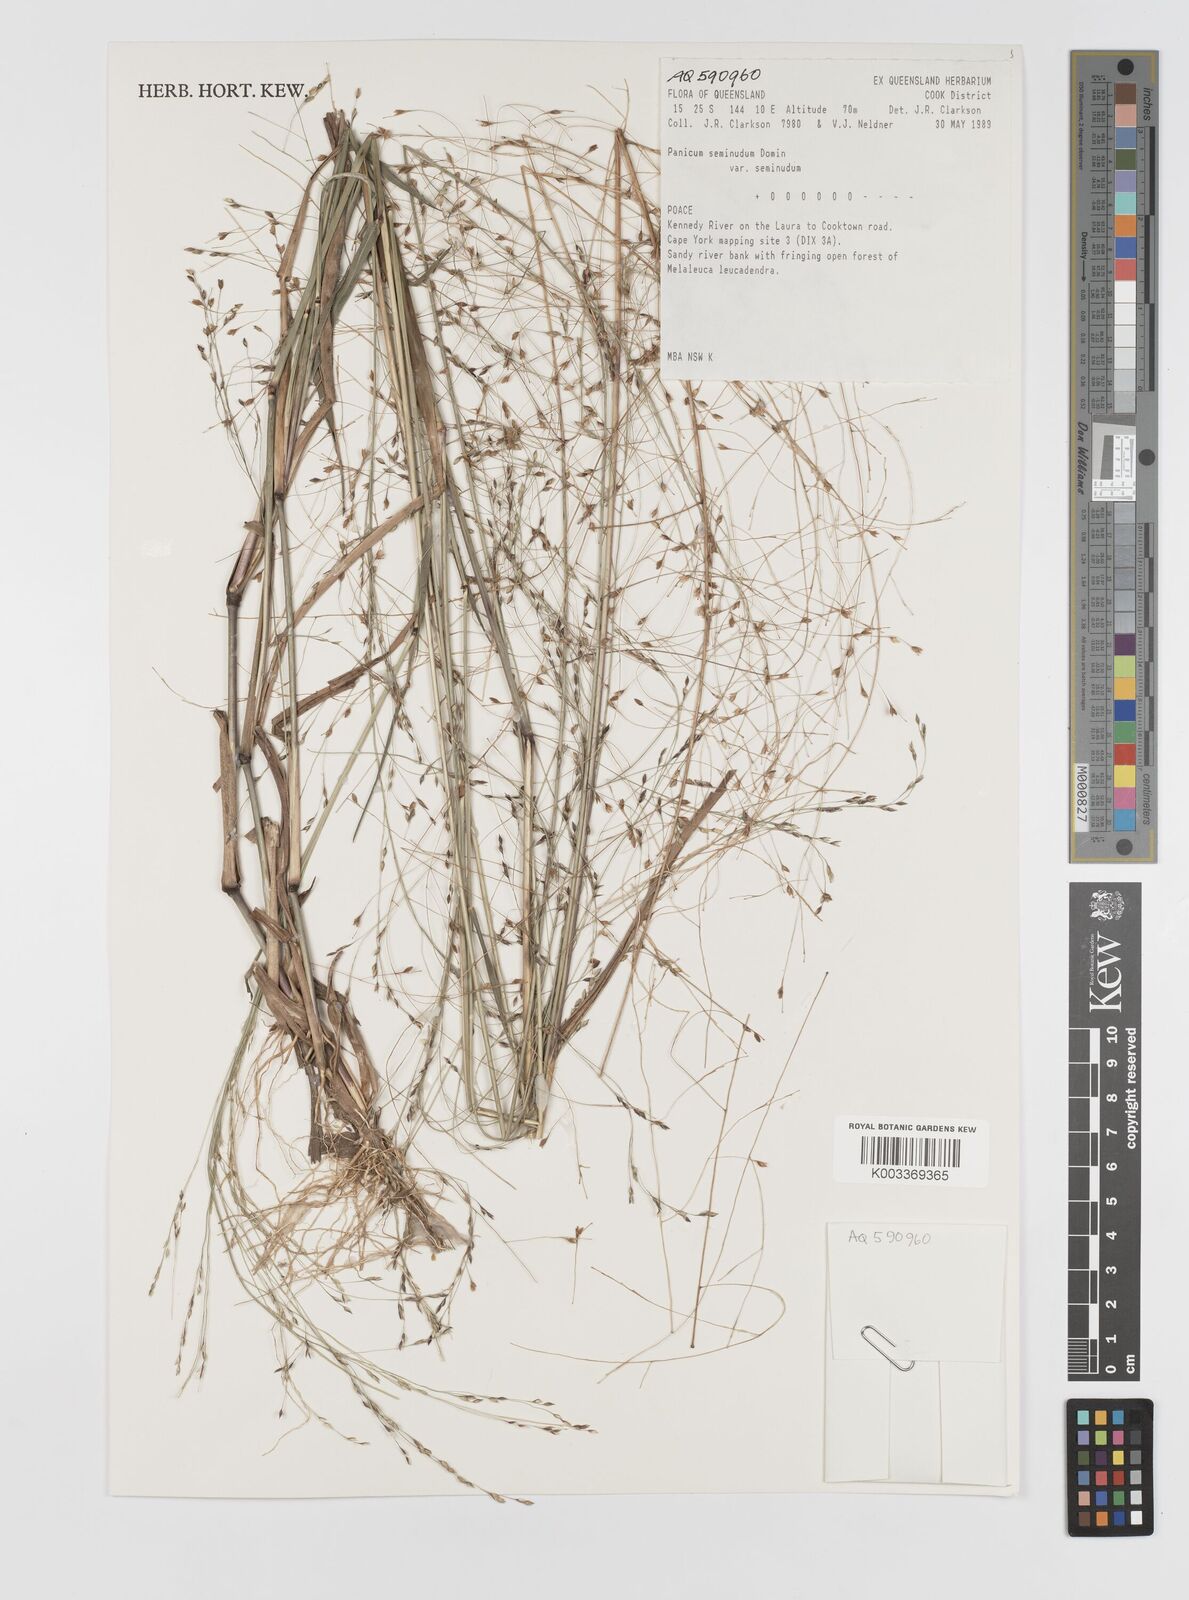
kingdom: Plantae
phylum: Tracheophyta
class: Liliopsida
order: Poales
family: Poaceae
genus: Panicum
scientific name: Panicum seminudum
